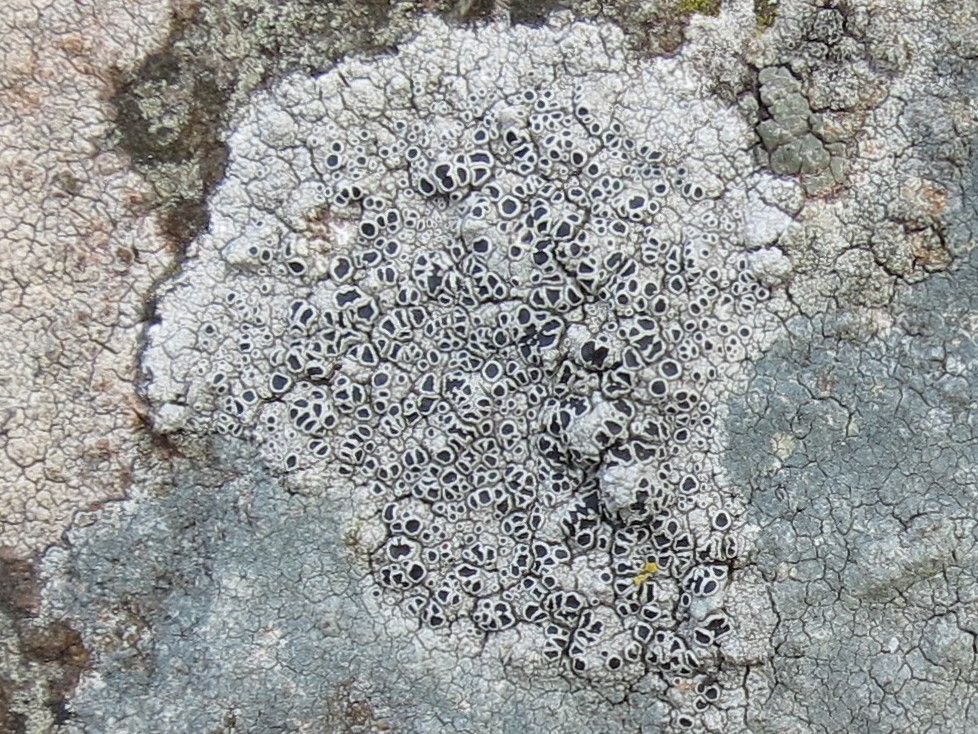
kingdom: Fungi
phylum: Ascomycota
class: Lecanoromycetes
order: Lecanorales
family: Tephromelataceae
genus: Tephromela
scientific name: Tephromela atra
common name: sortfrugtet kantskivelav
